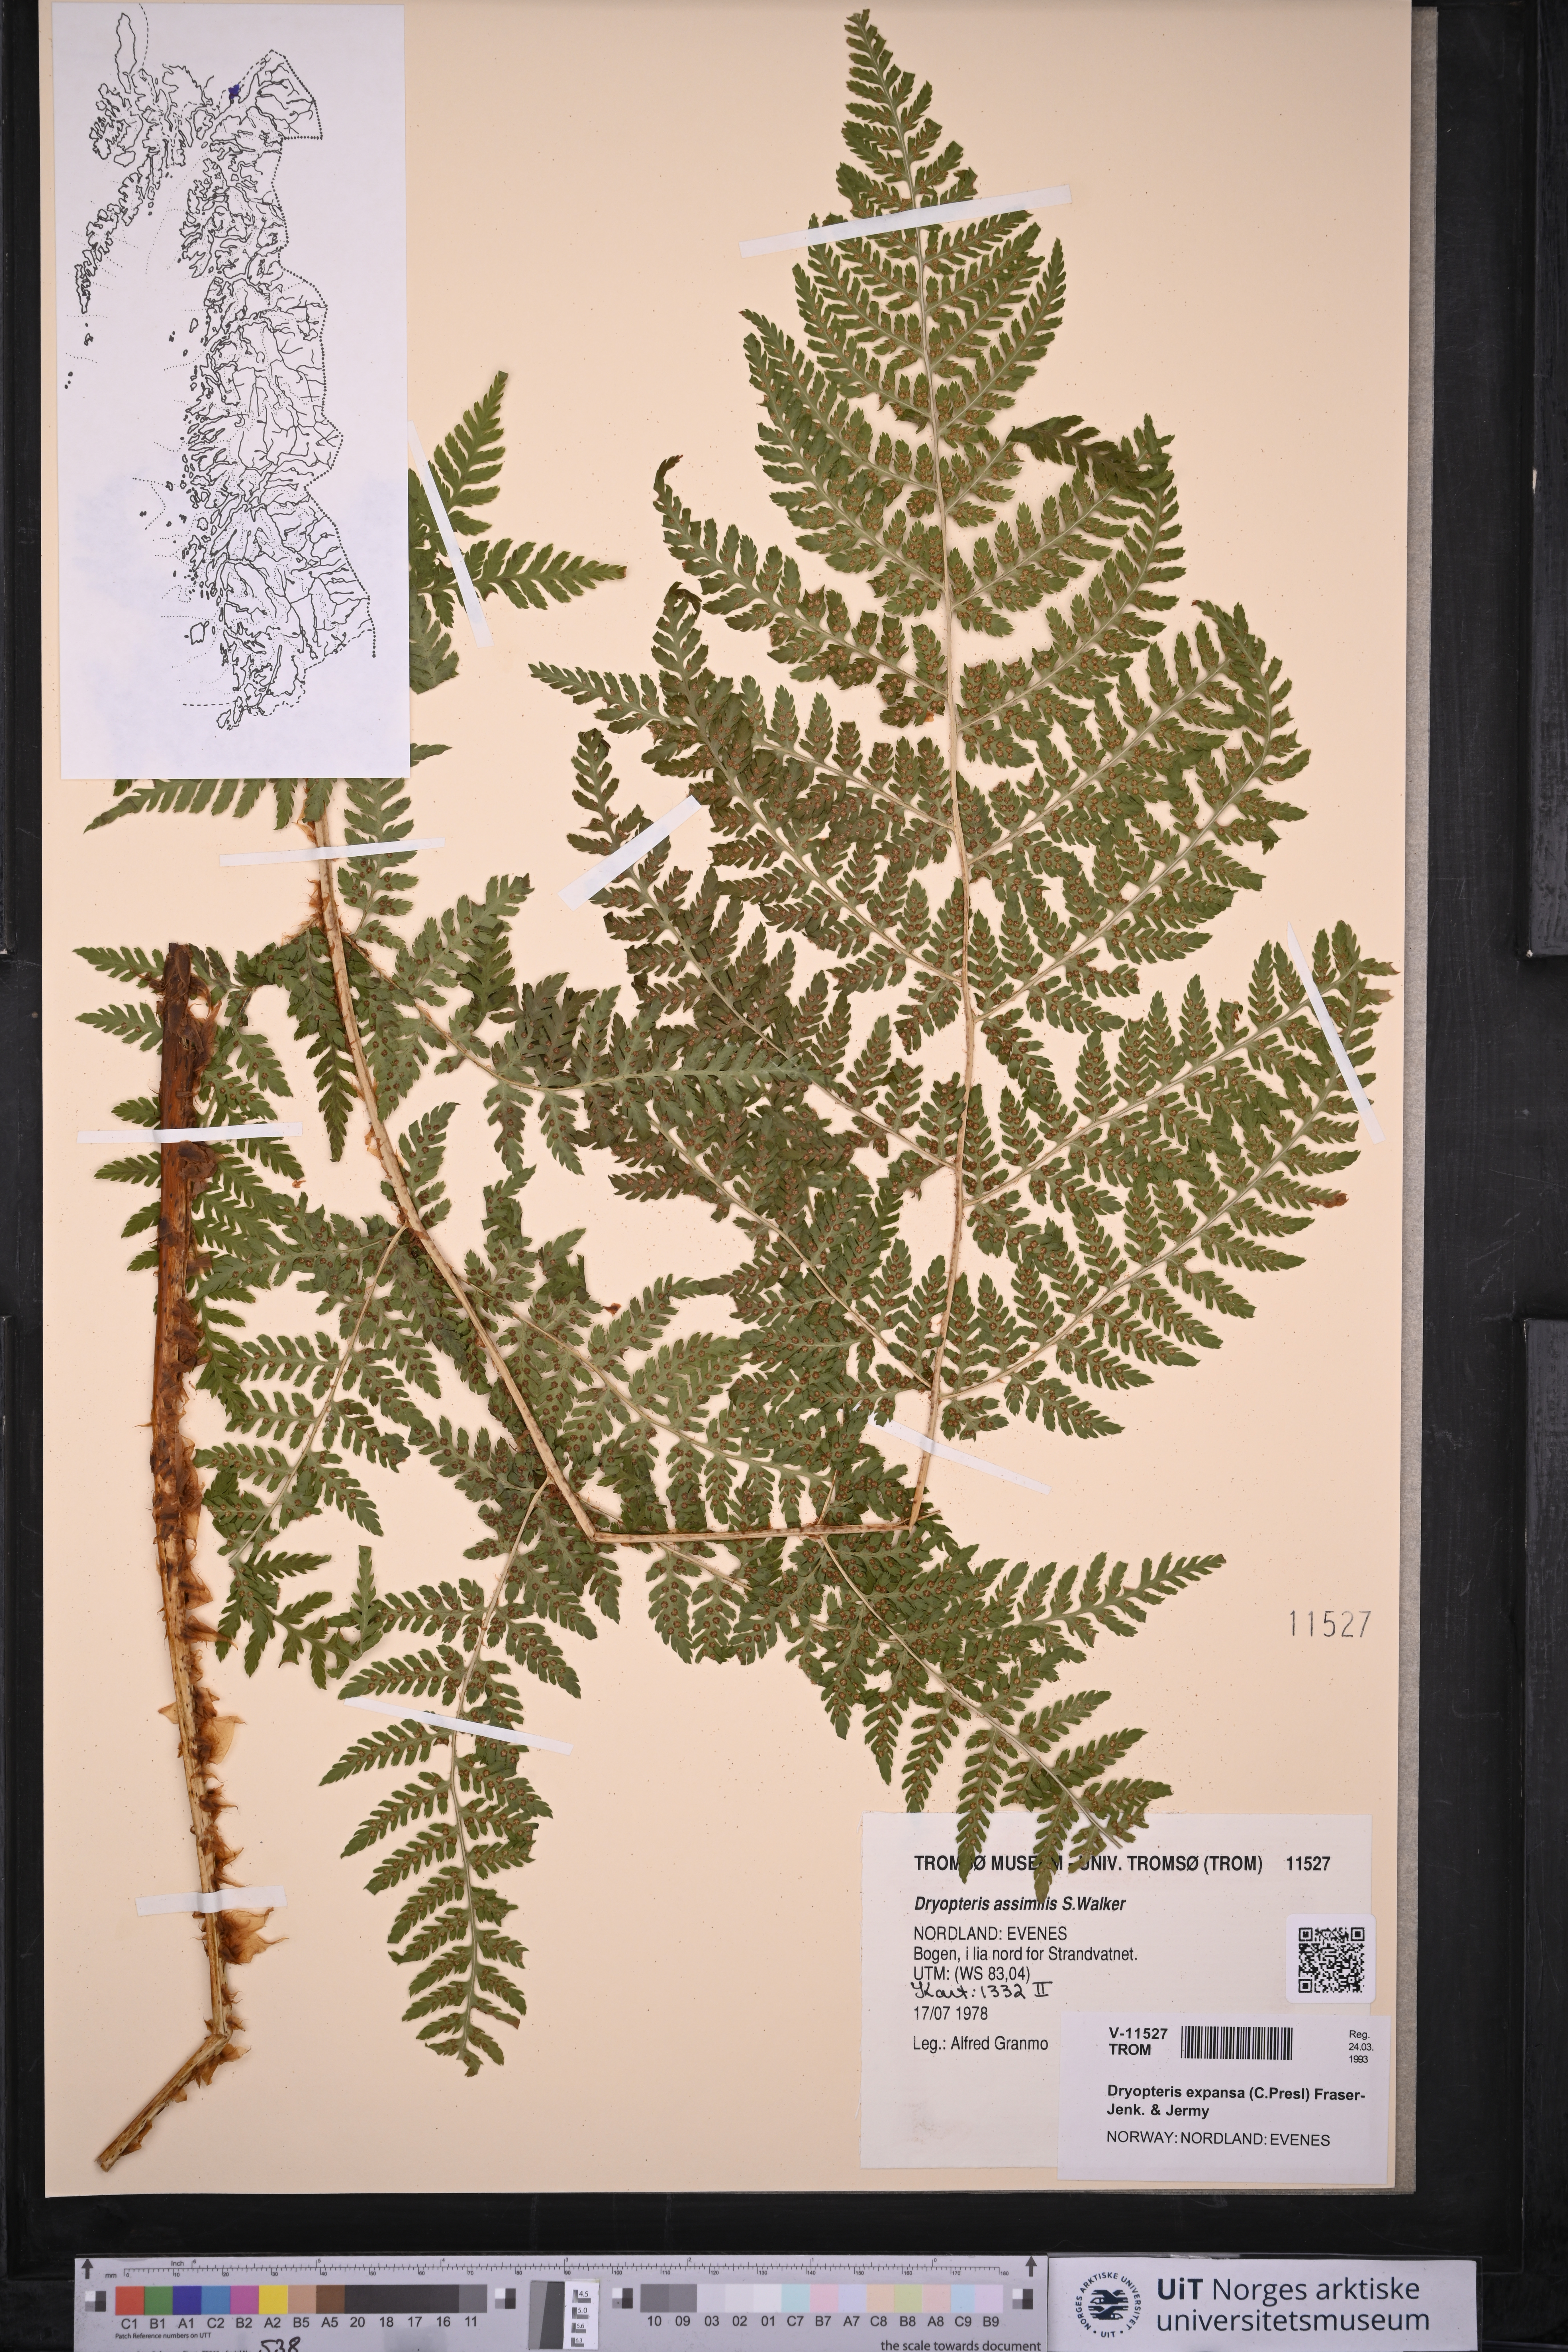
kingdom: Plantae
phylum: Tracheophyta
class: Polypodiopsida
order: Polypodiales
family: Dryopteridaceae
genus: Dryopteris
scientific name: Dryopteris expansa
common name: Northern buckler fern
